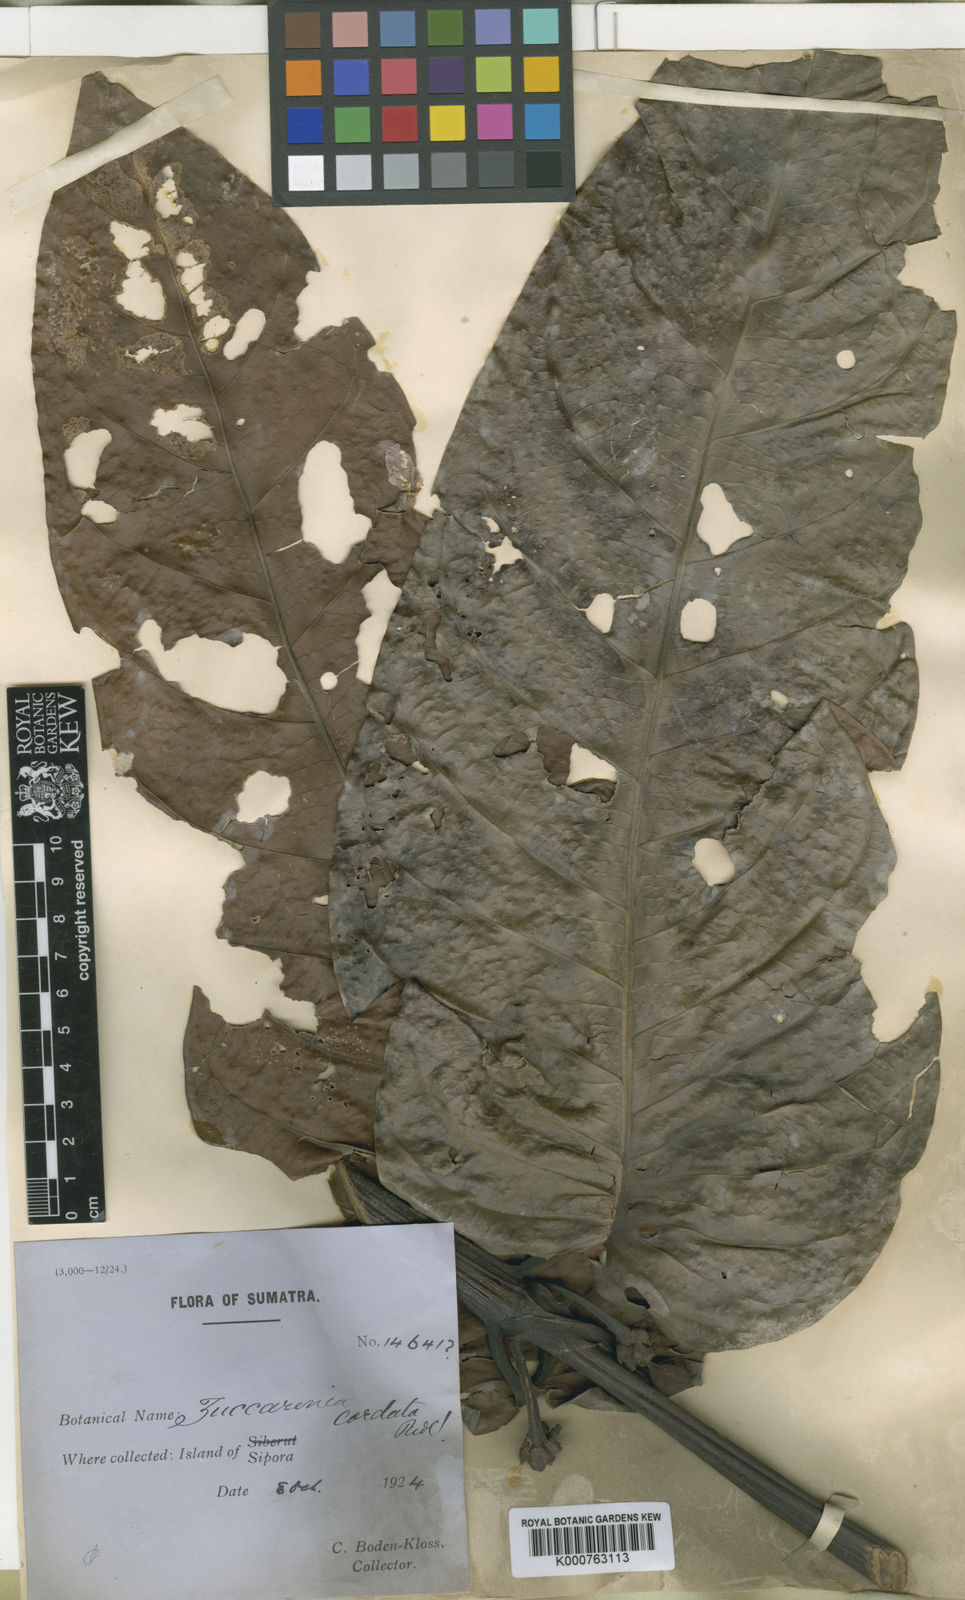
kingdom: Plantae
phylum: Tracheophyta
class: Magnoliopsida
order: Gentianales
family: Rubiaceae
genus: Zuccarinia
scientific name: Zuccarinia macrophylla
